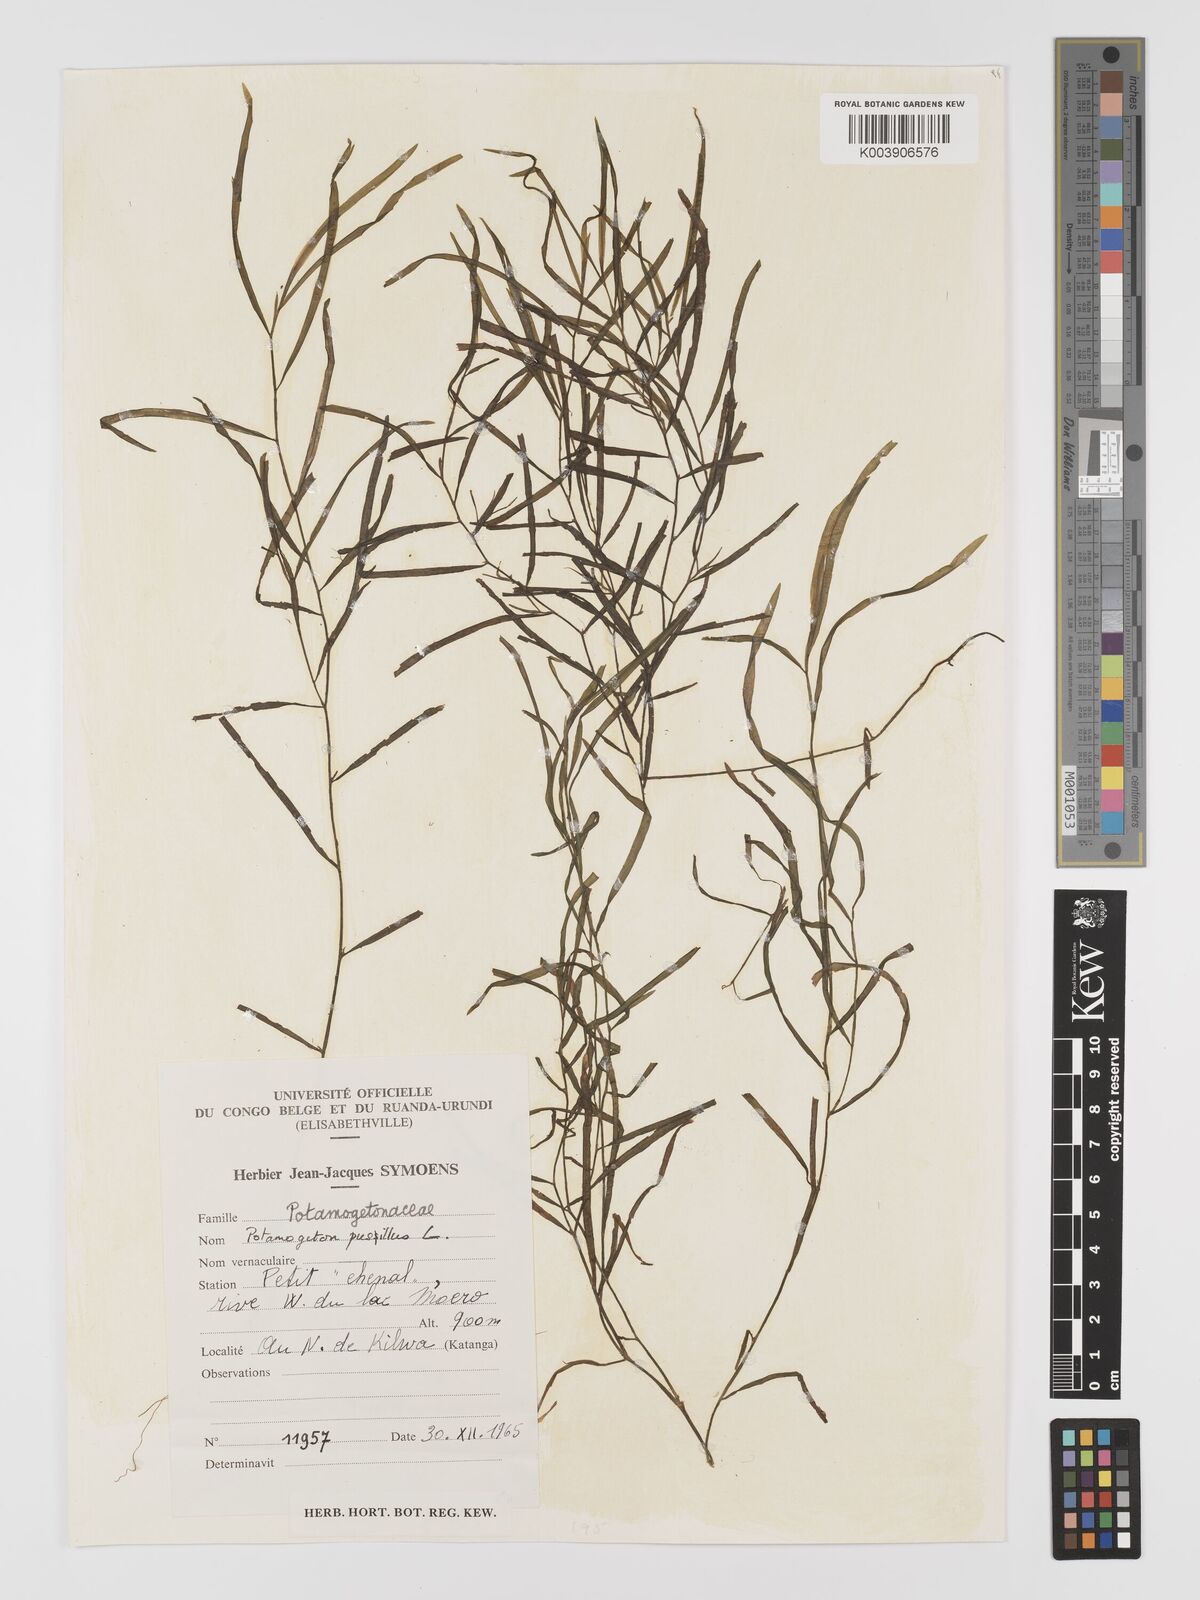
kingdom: Plantae
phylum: Tracheophyta
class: Liliopsida
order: Alismatales
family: Potamogetonaceae
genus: Potamogeton
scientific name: Potamogeton pusillus
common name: Lesser pondweed
